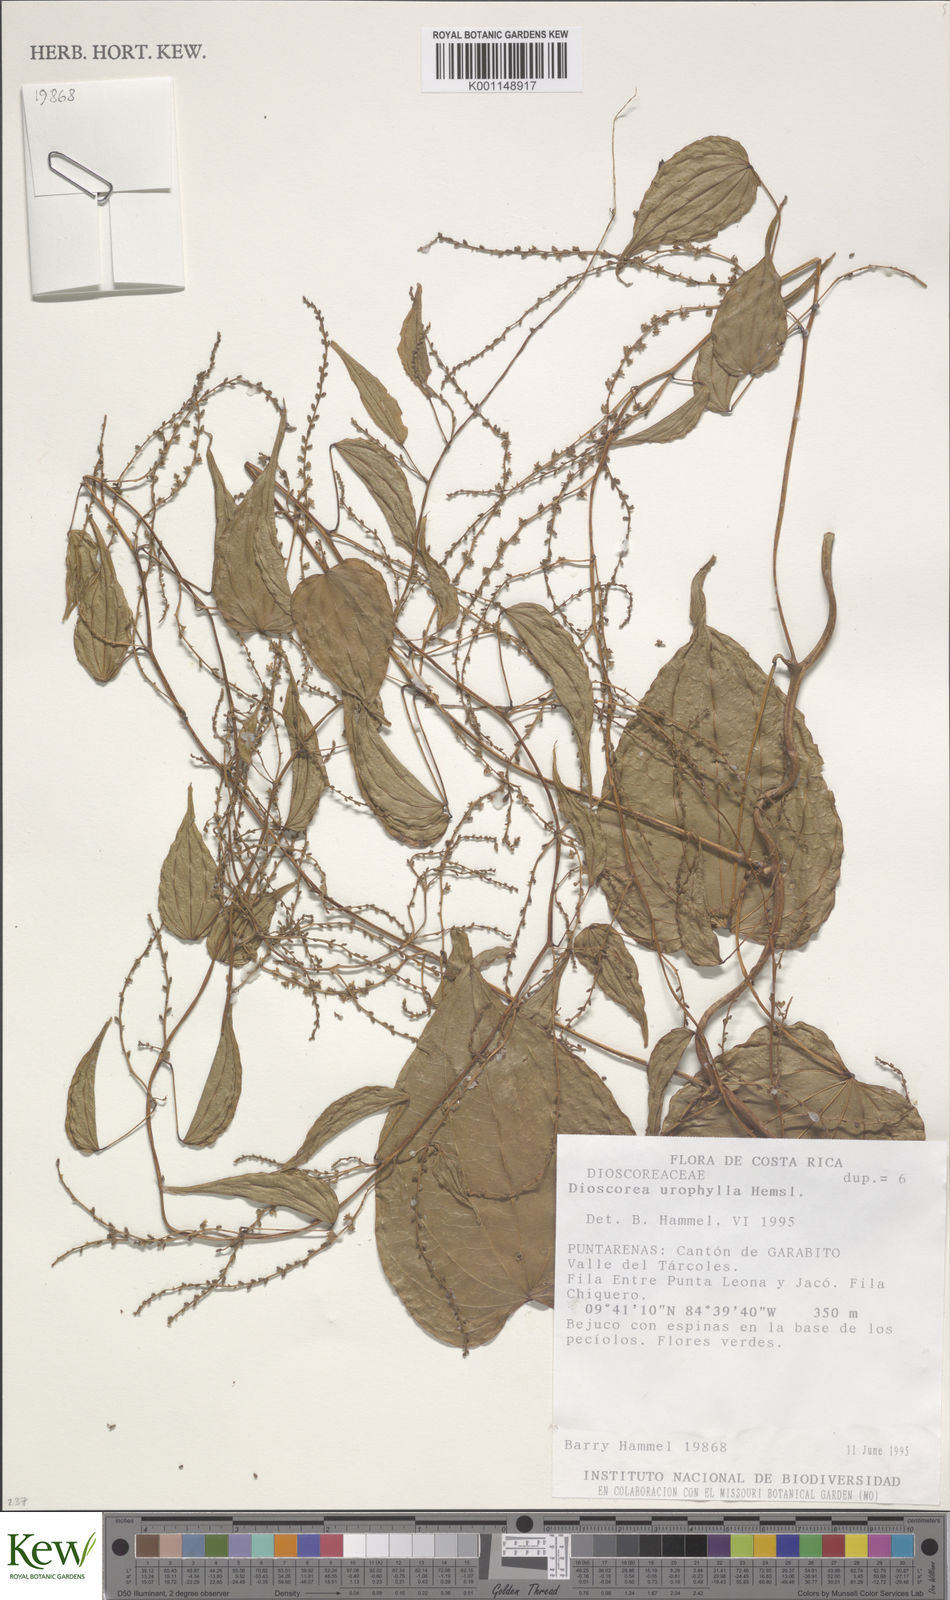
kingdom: Plantae
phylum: Tracheophyta
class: Liliopsida
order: Dioscoreales
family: Dioscoreaceae
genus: Dioscorea
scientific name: Dioscorea
